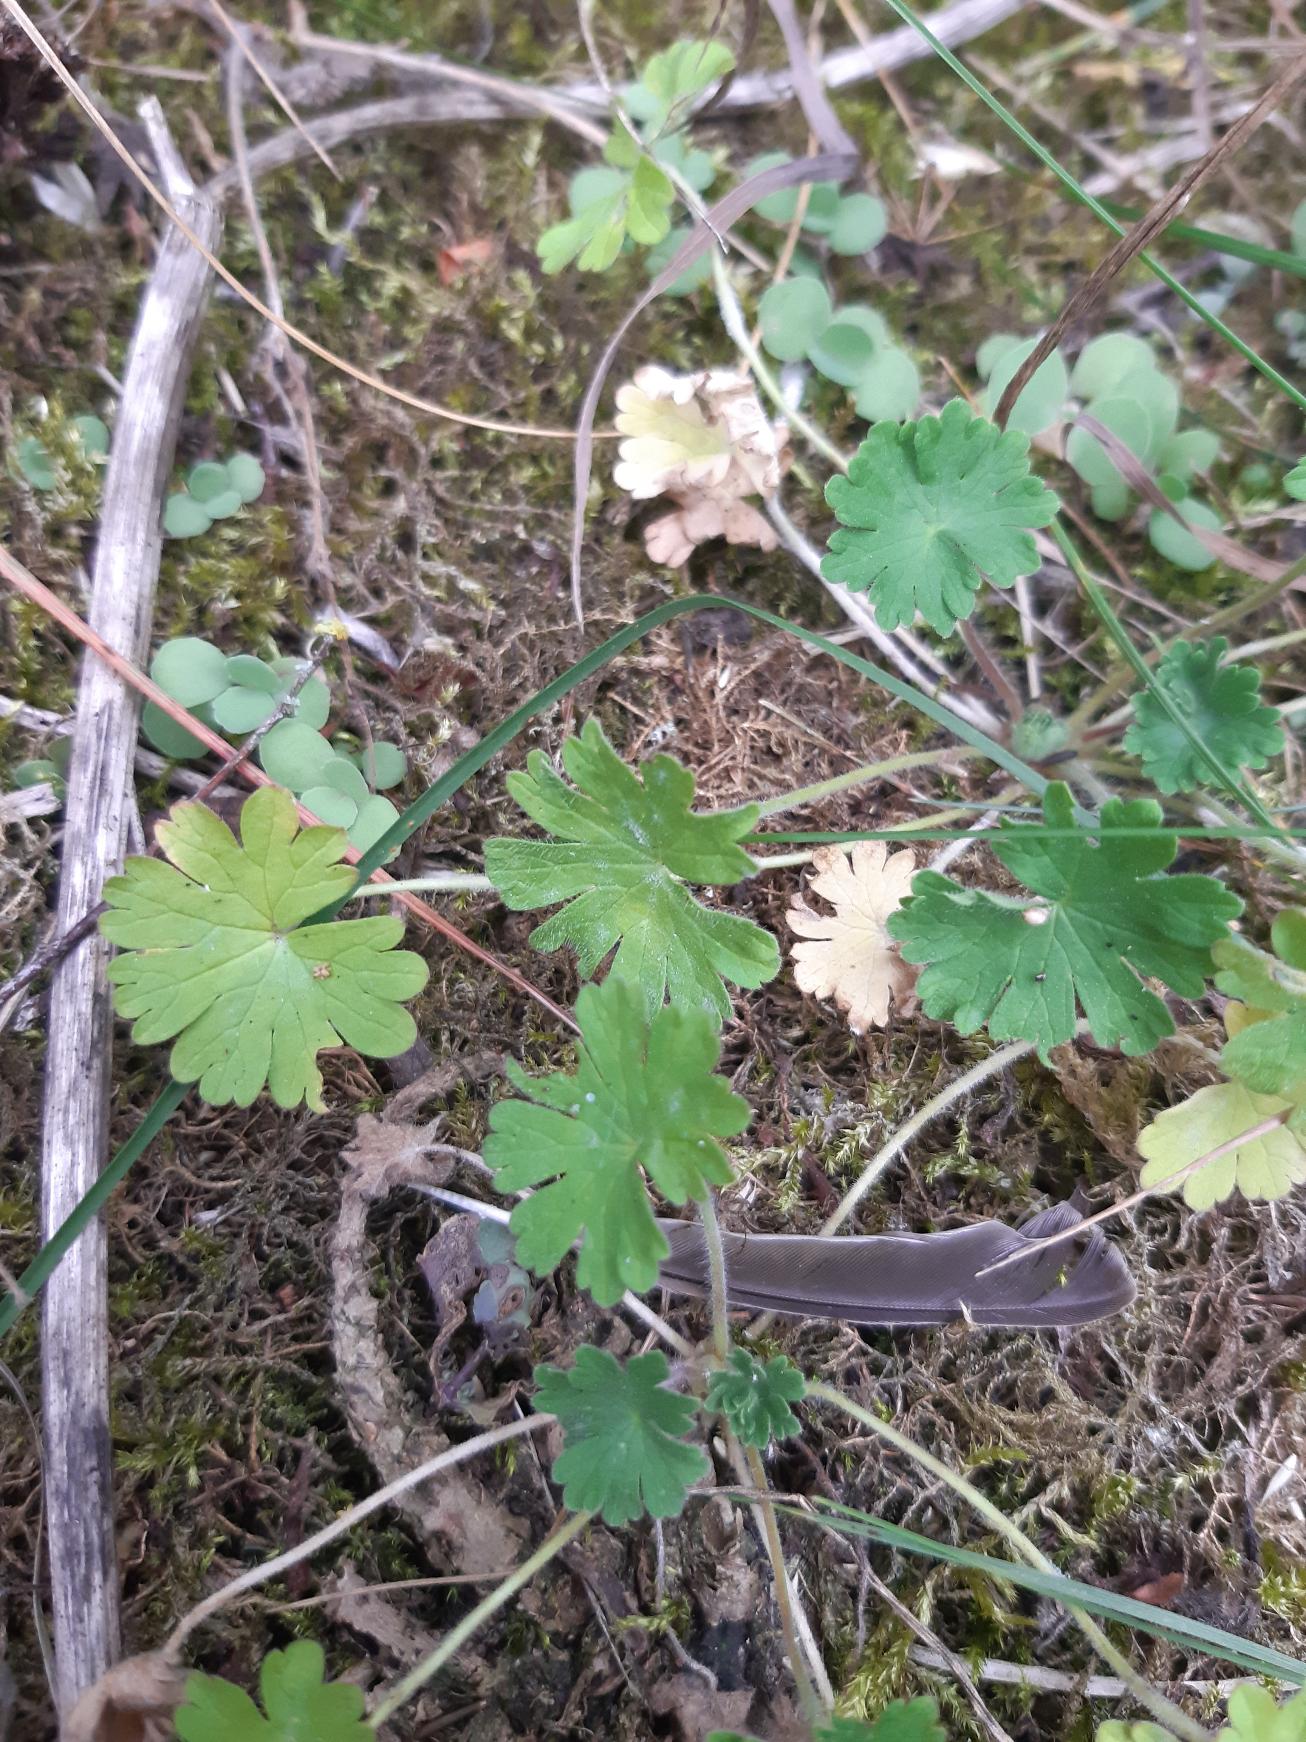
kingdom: Plantae
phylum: Tracheophyta
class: Magnoliopsida
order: Geraniales
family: Geraniaceae
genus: Geranium
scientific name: Geranium molle
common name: Blød storkenæb
